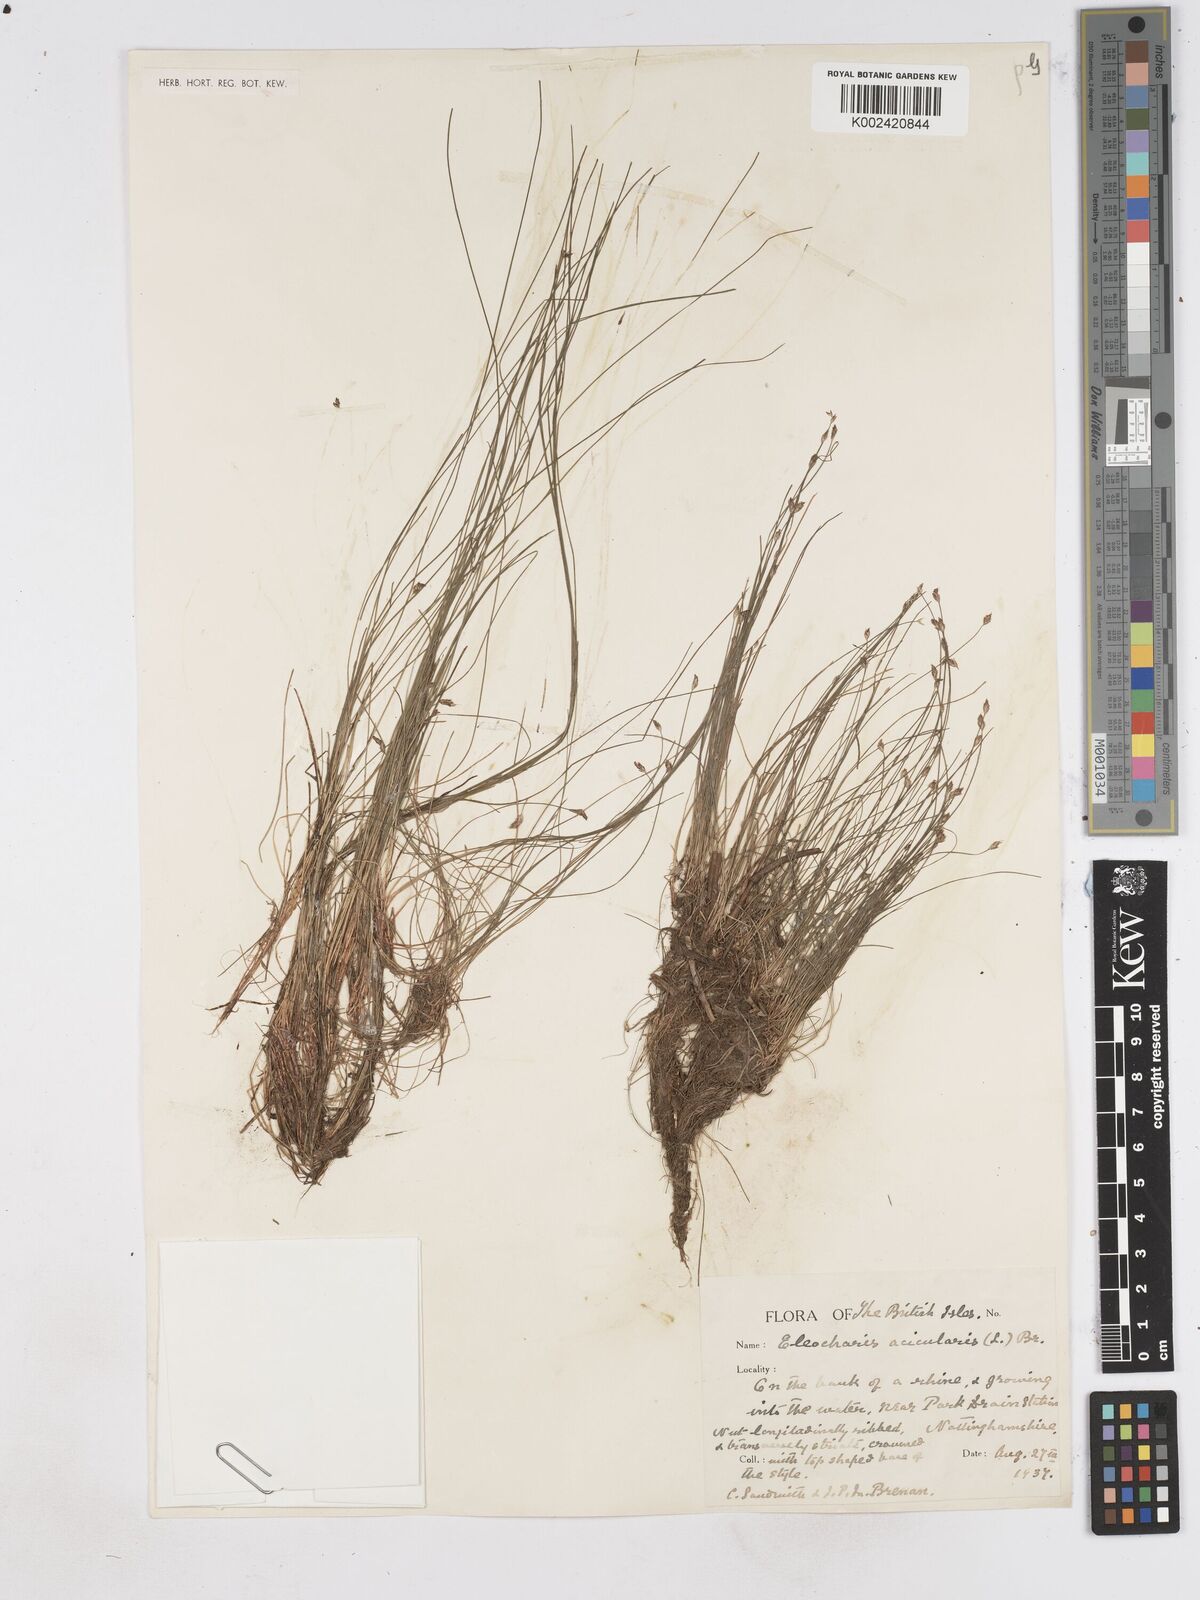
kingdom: Plantae
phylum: Tracheophyta
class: Liliopsida
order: Poales
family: Cyperaceae
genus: Eleocharis
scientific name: Eleocharis acicularis
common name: Needle spike-rush
